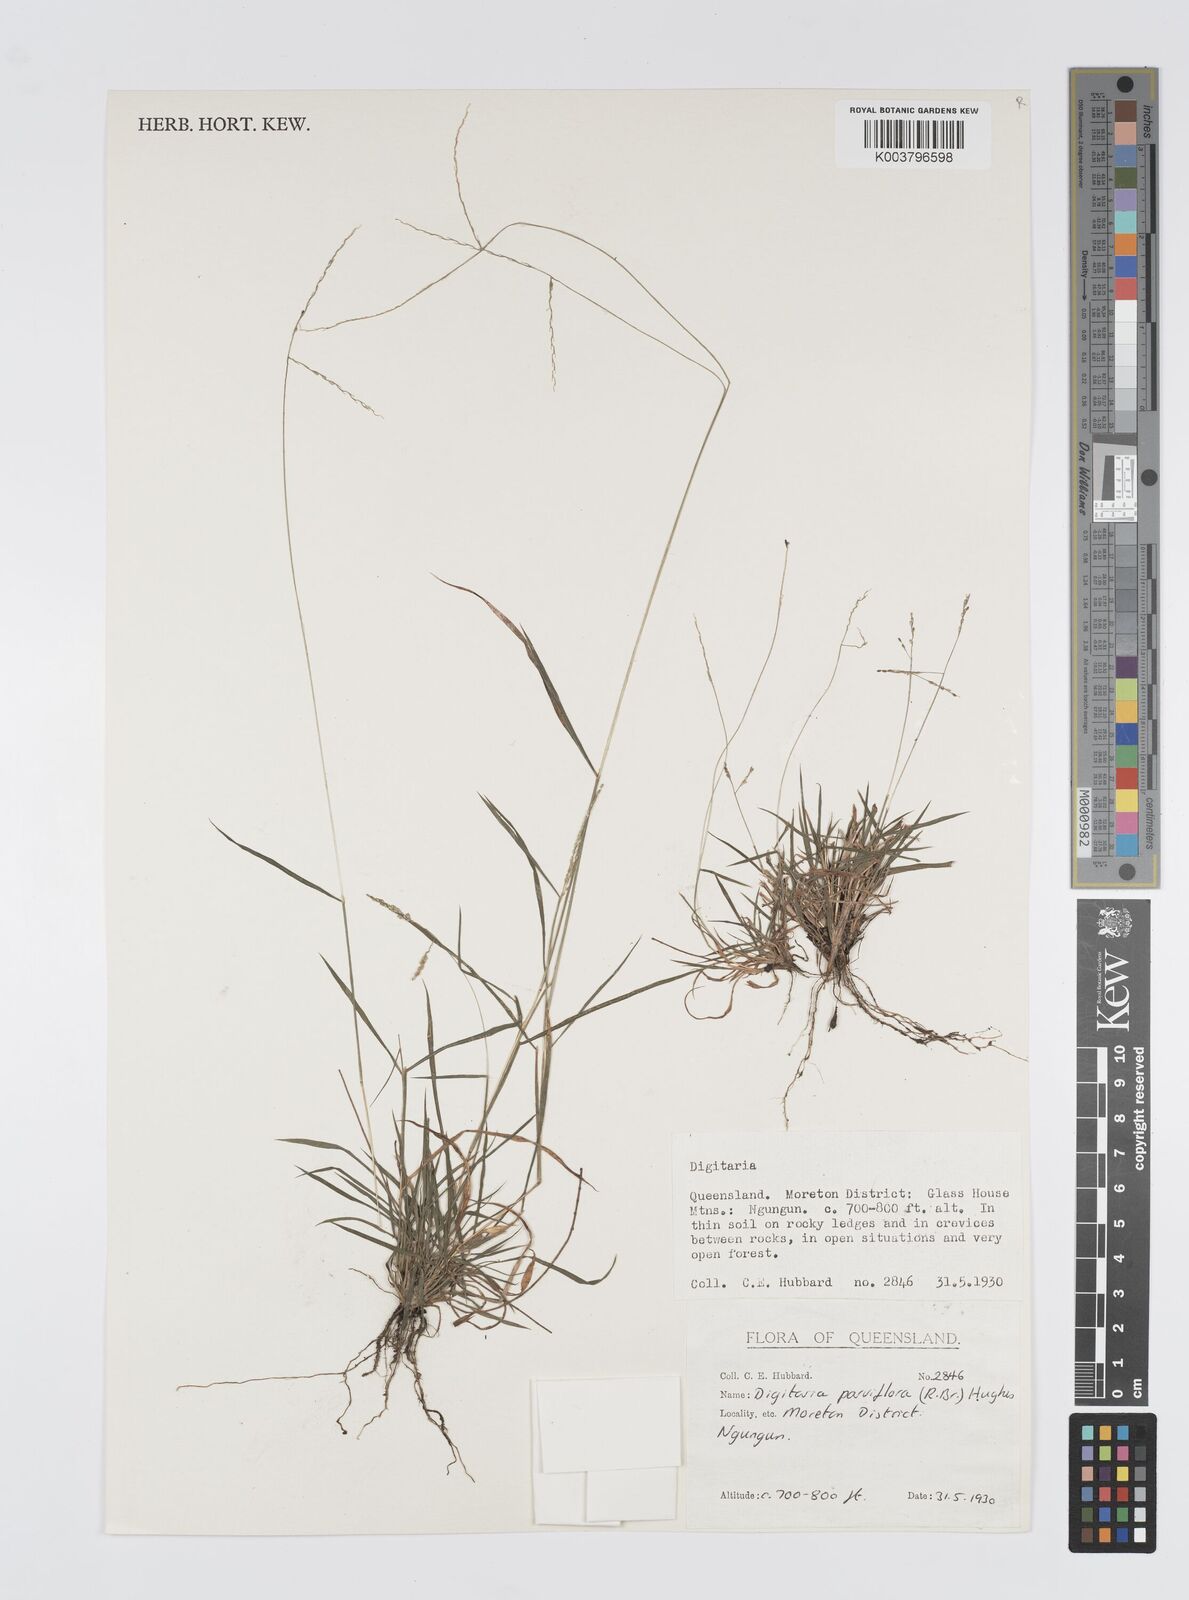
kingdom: Plantae
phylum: Tracheophyta
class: Liliopsida
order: Poales
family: Poaceae
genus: Digitaria
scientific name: Digitaria parviflora
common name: Small-flower finger grass
